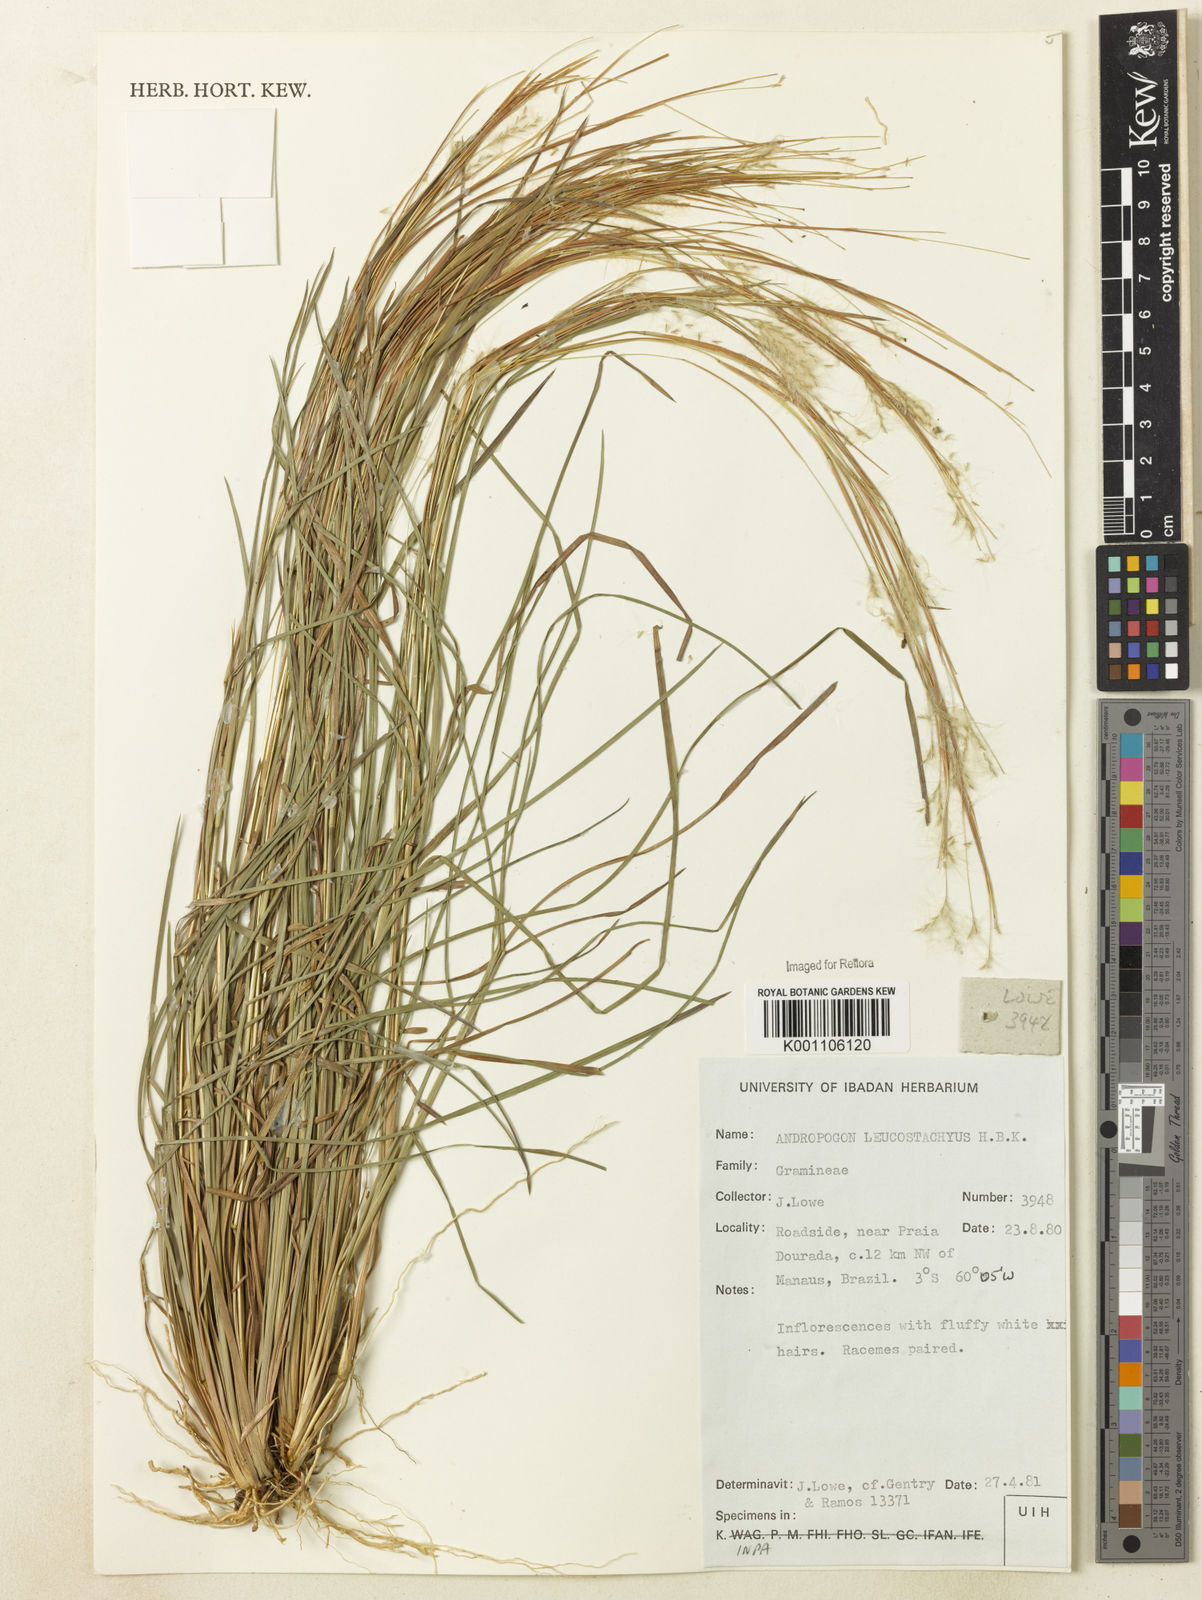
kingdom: Plantae
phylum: Tracheophyta
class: Liliopsida
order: Poales
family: Poaceae
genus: Andropogon
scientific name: Andropogon leucostachyus
